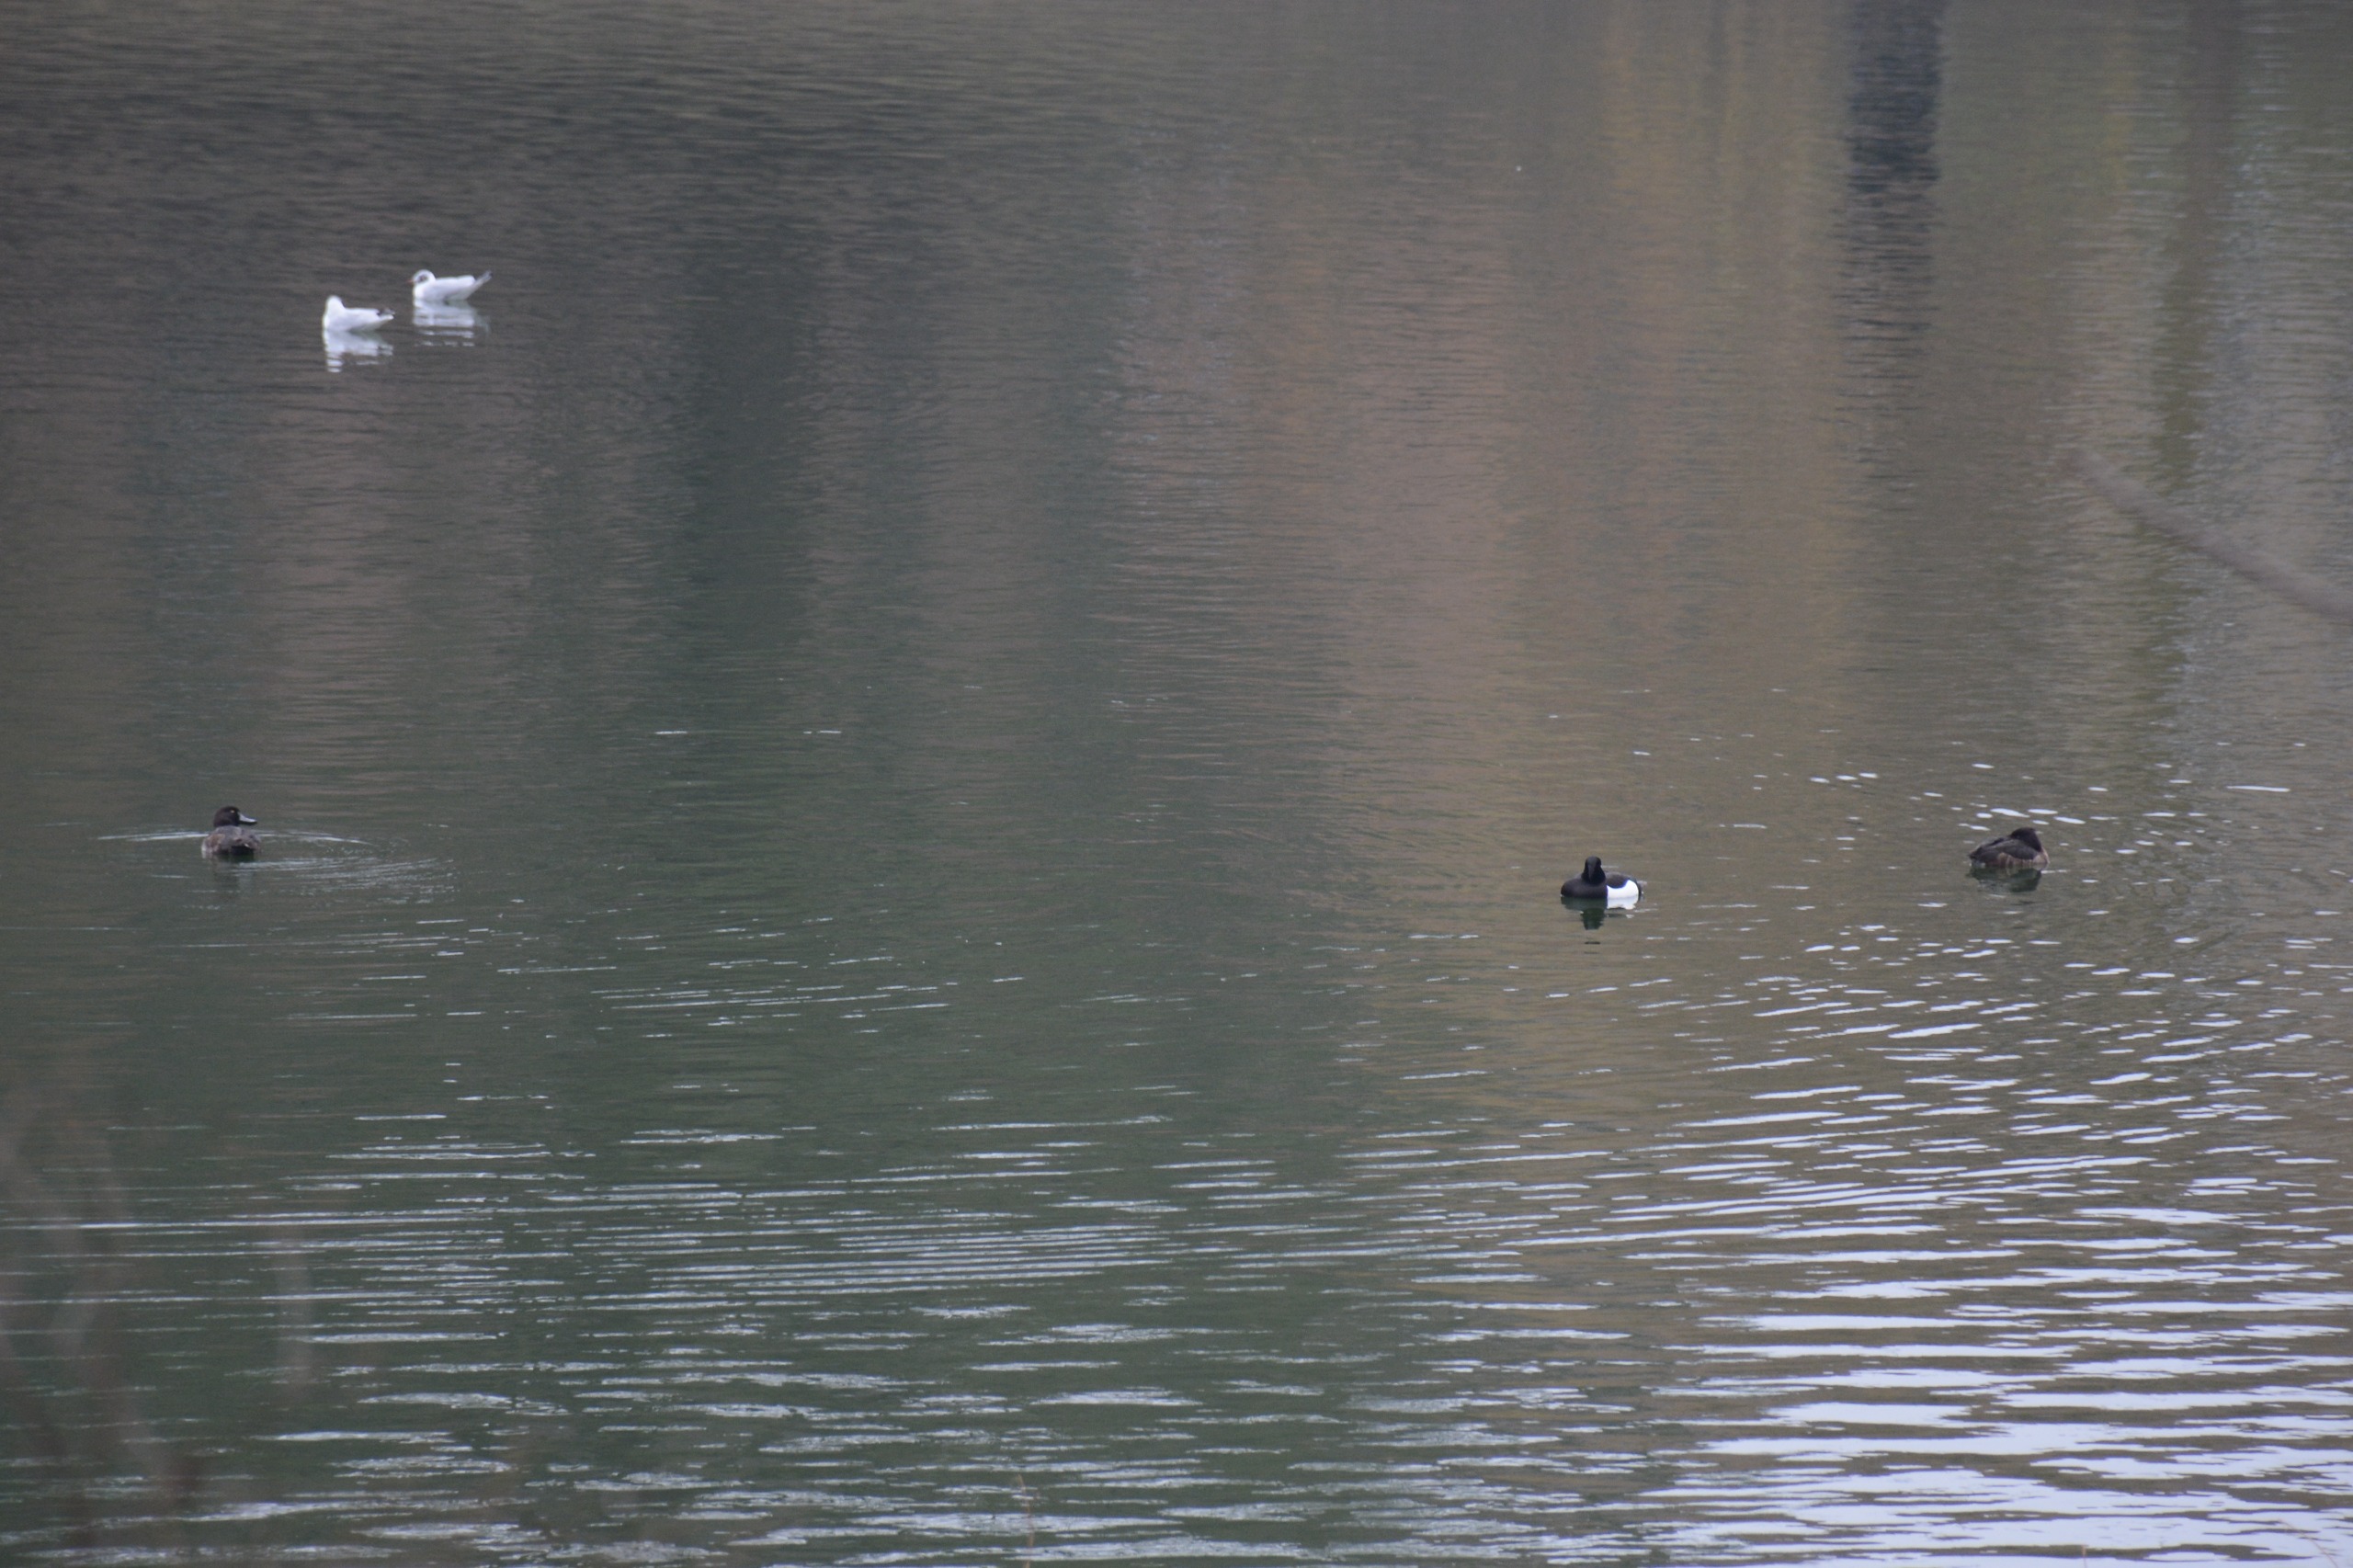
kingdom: Animalia
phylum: Chordata
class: Aves
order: Anseriformes
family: Anatidae
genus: Aythya
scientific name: Aythya fuligula
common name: Troldand
